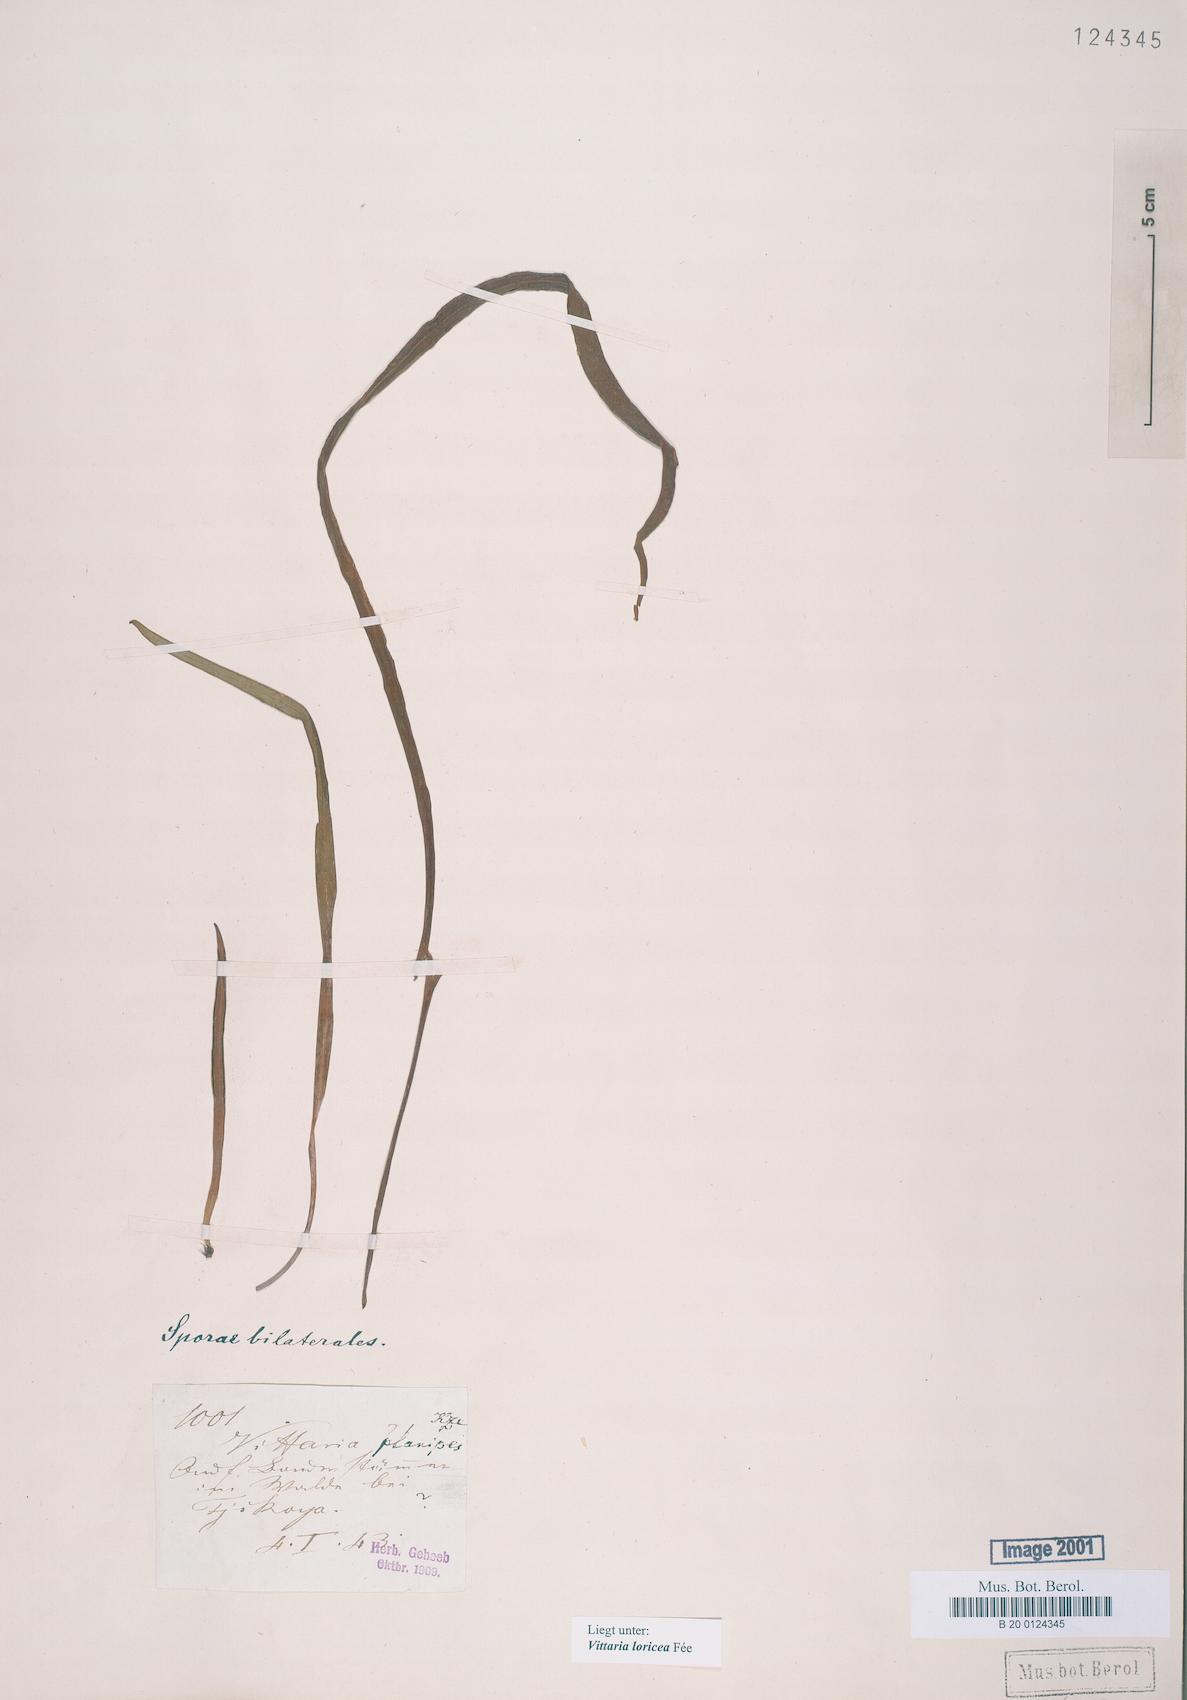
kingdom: Plantae
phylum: Tracheophyta
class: Polypodiopsida
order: Polypodiales
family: Pteridaceae
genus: Haplopteris
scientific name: Haplopteris zosterifolia
